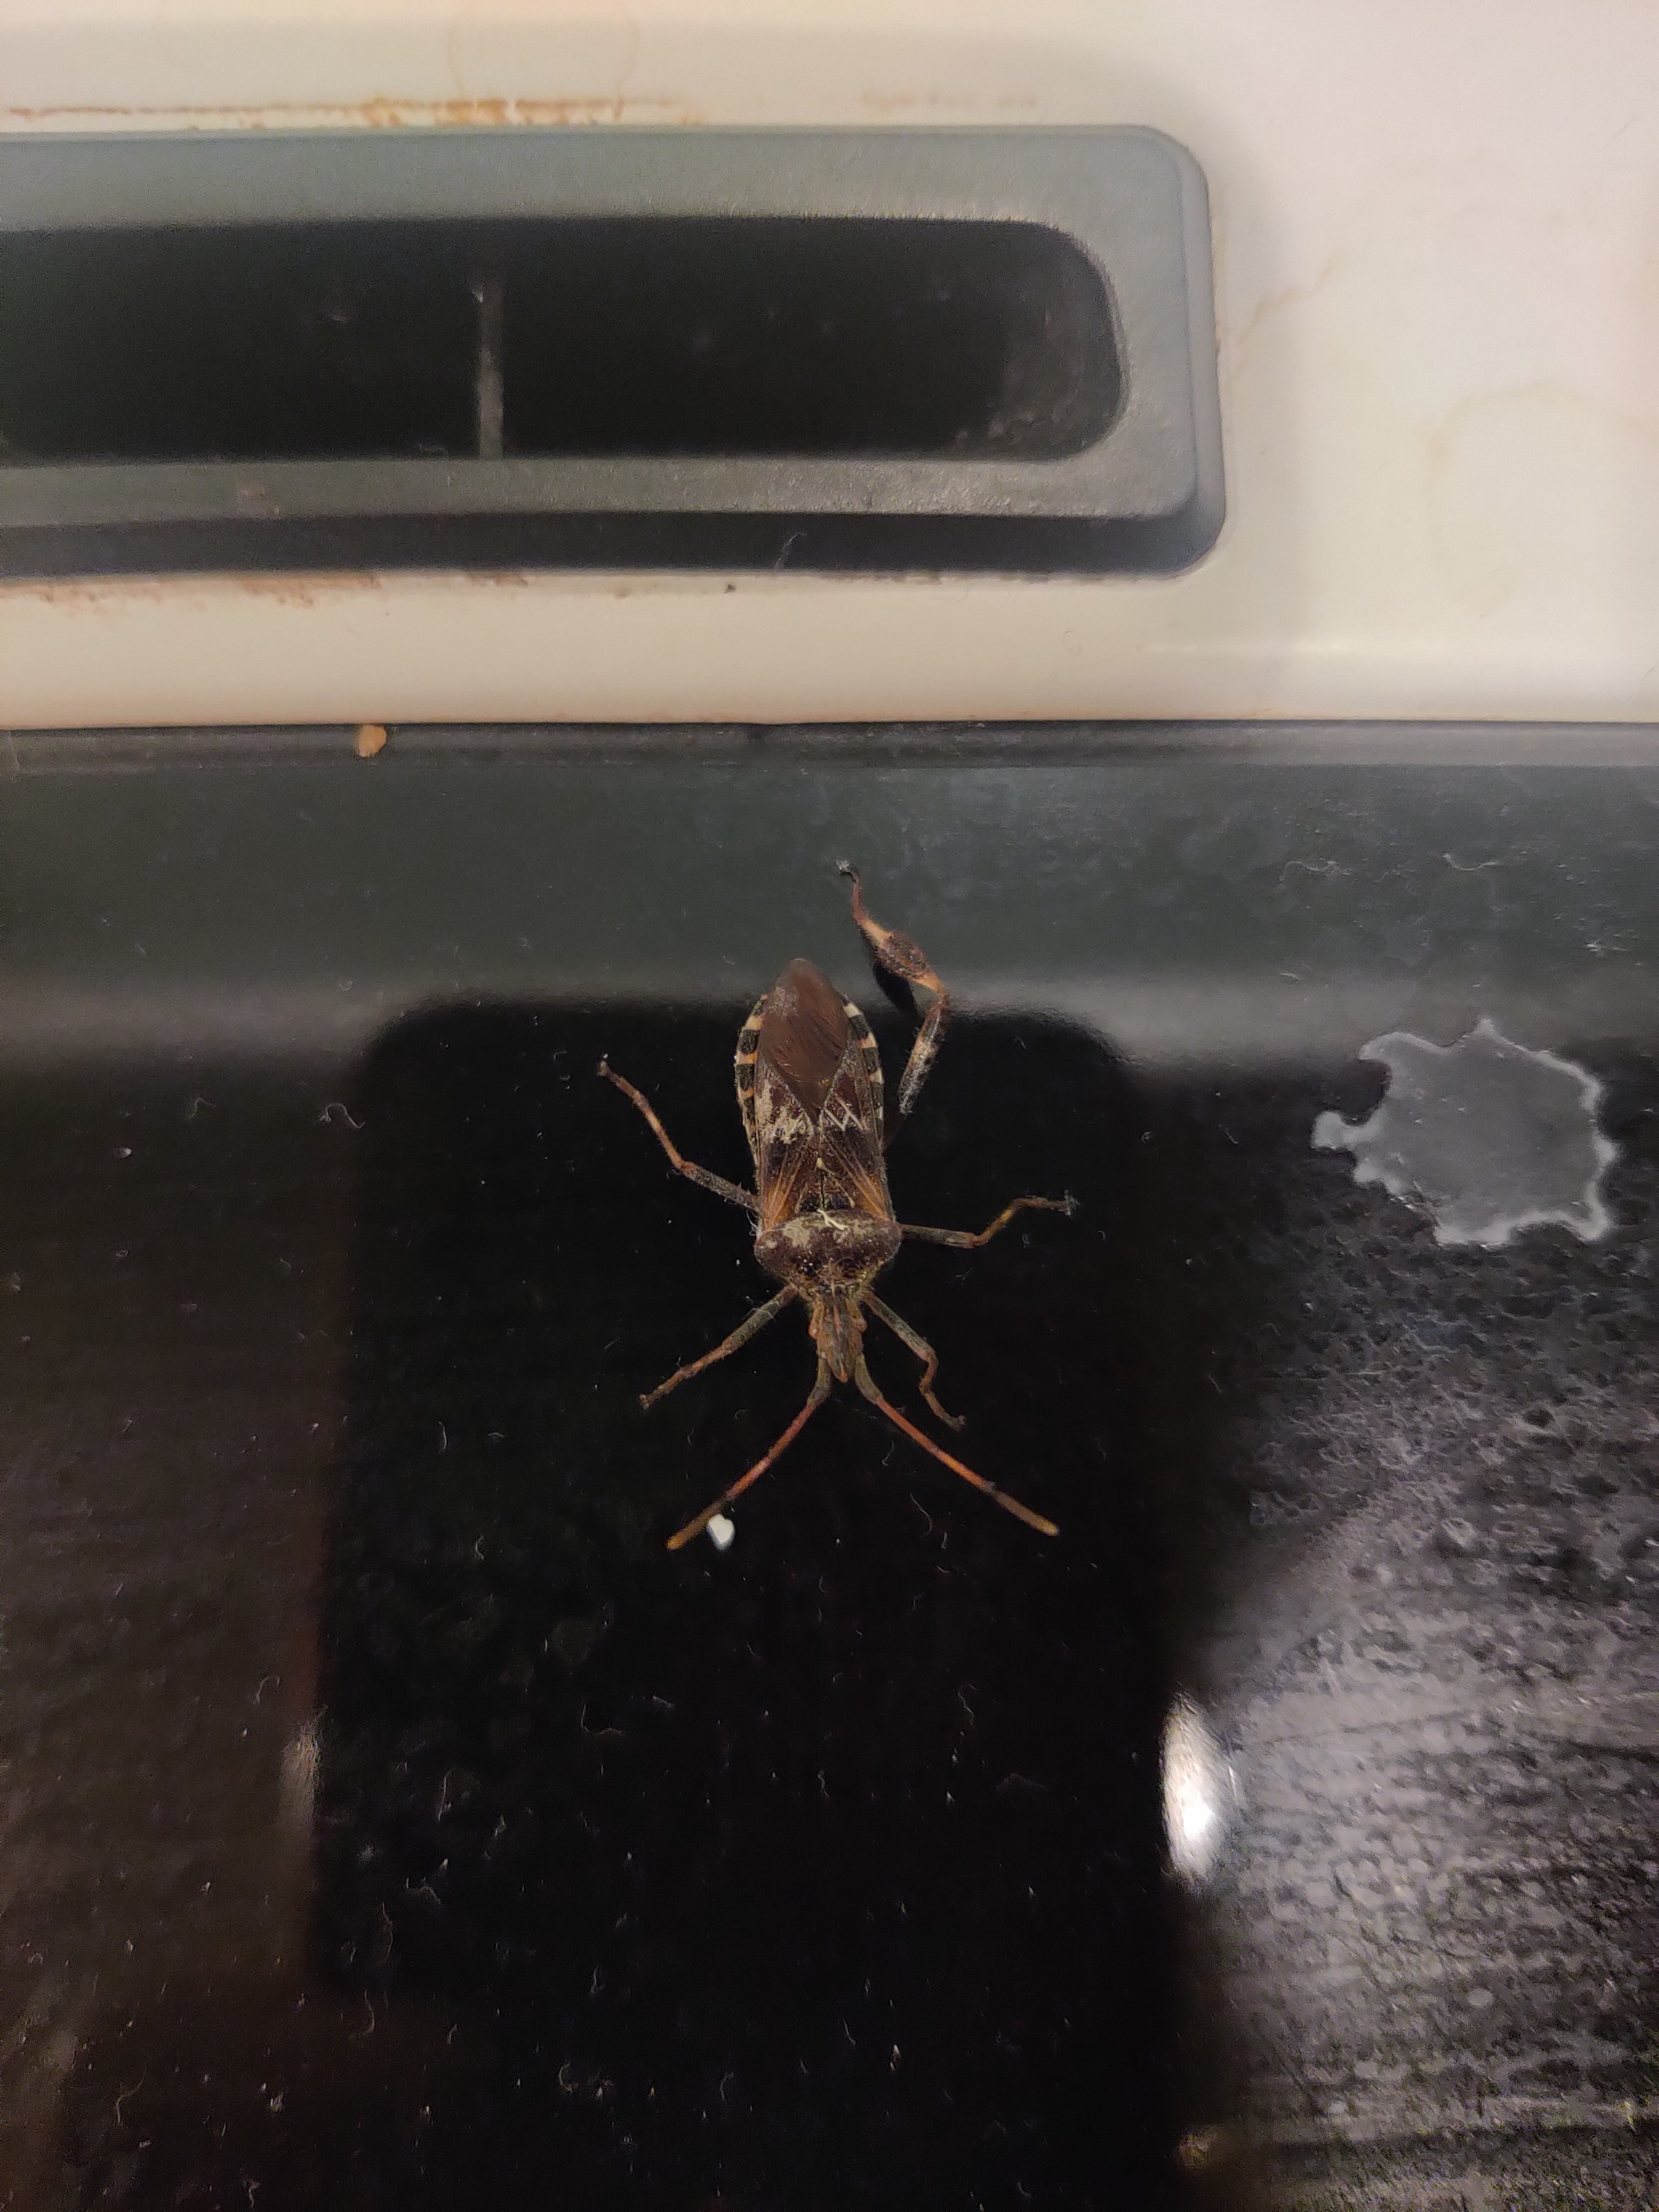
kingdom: Animalia
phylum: Arthropoda
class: Insecta
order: Hemiptera
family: Coreidae
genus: Leptoglossus
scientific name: Leptoglossus occidentalis
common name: Amerikansk fyrretæge
